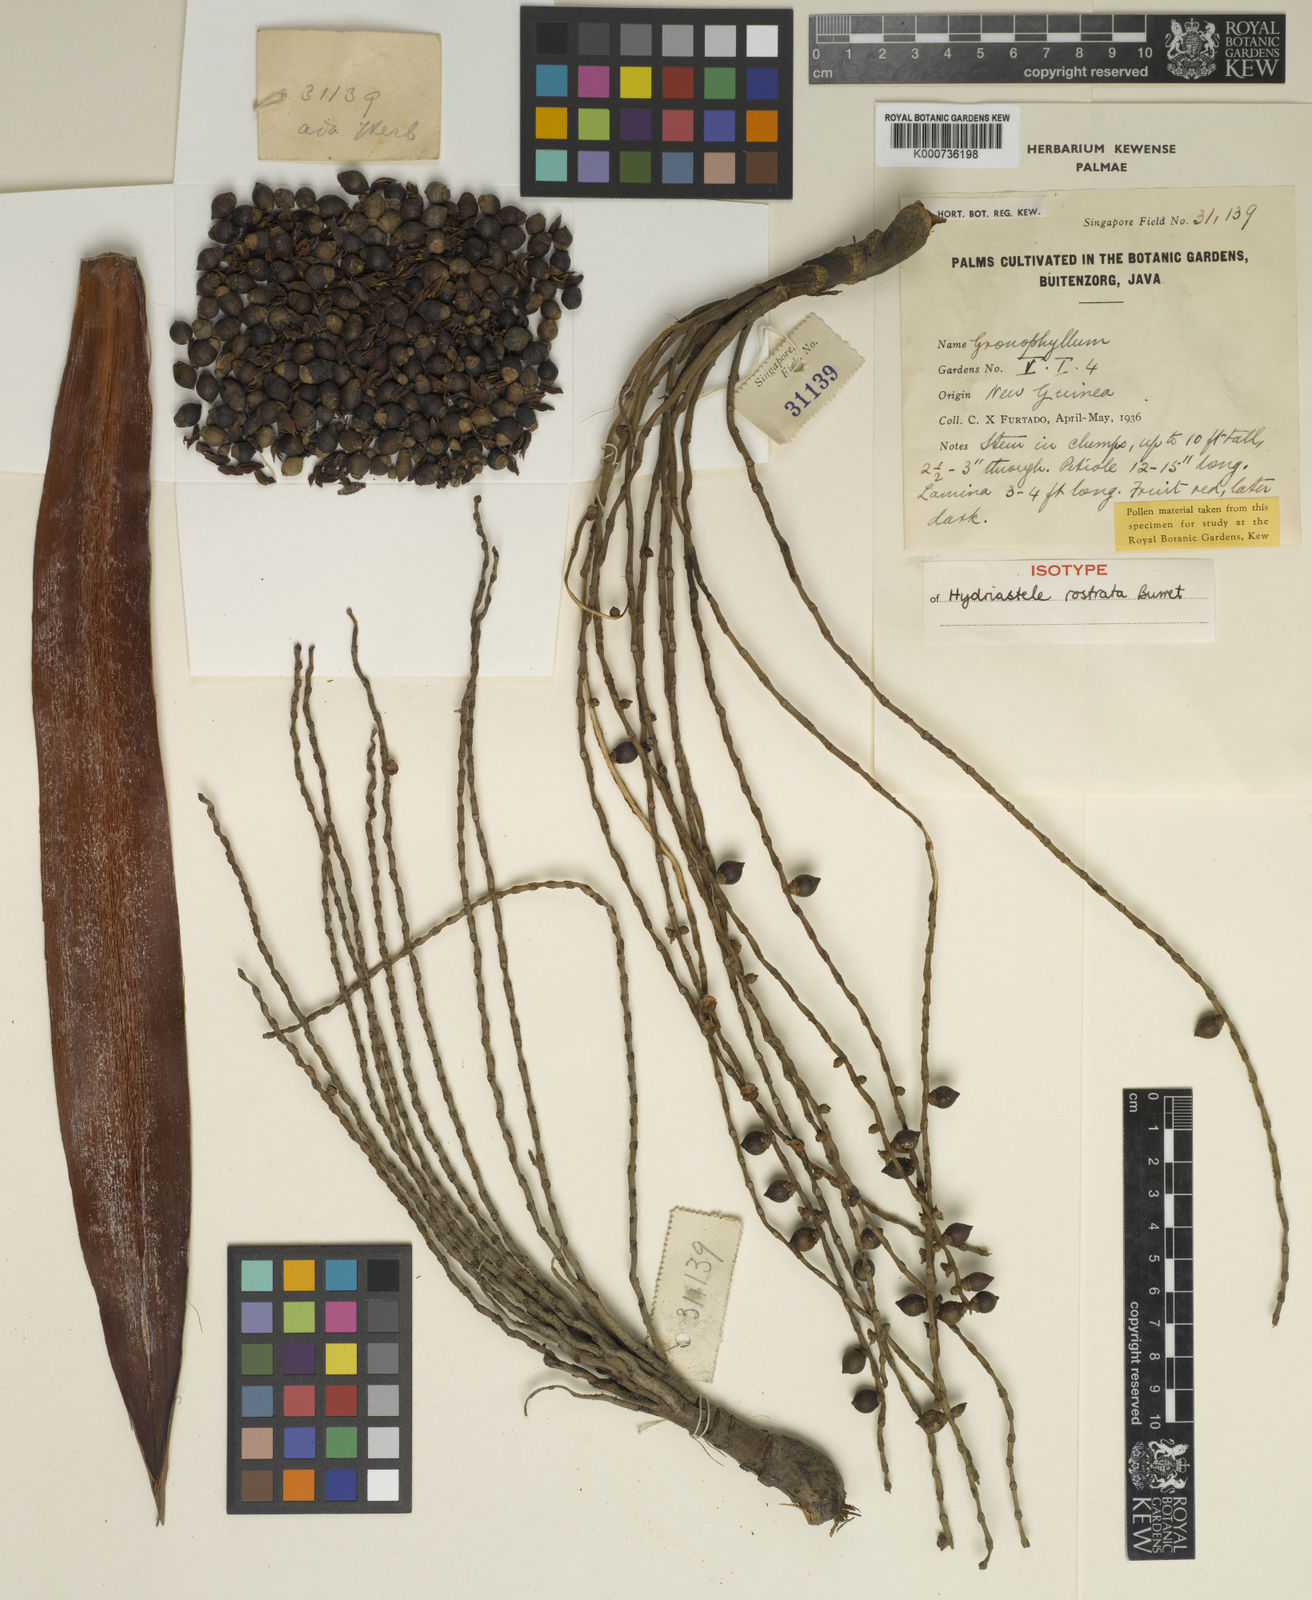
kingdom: Plantae
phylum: Tracheophyta
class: Liliopsida
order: Arecales
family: Arecaceae
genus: Hydriastele
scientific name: Hydriastele wendlandiana
